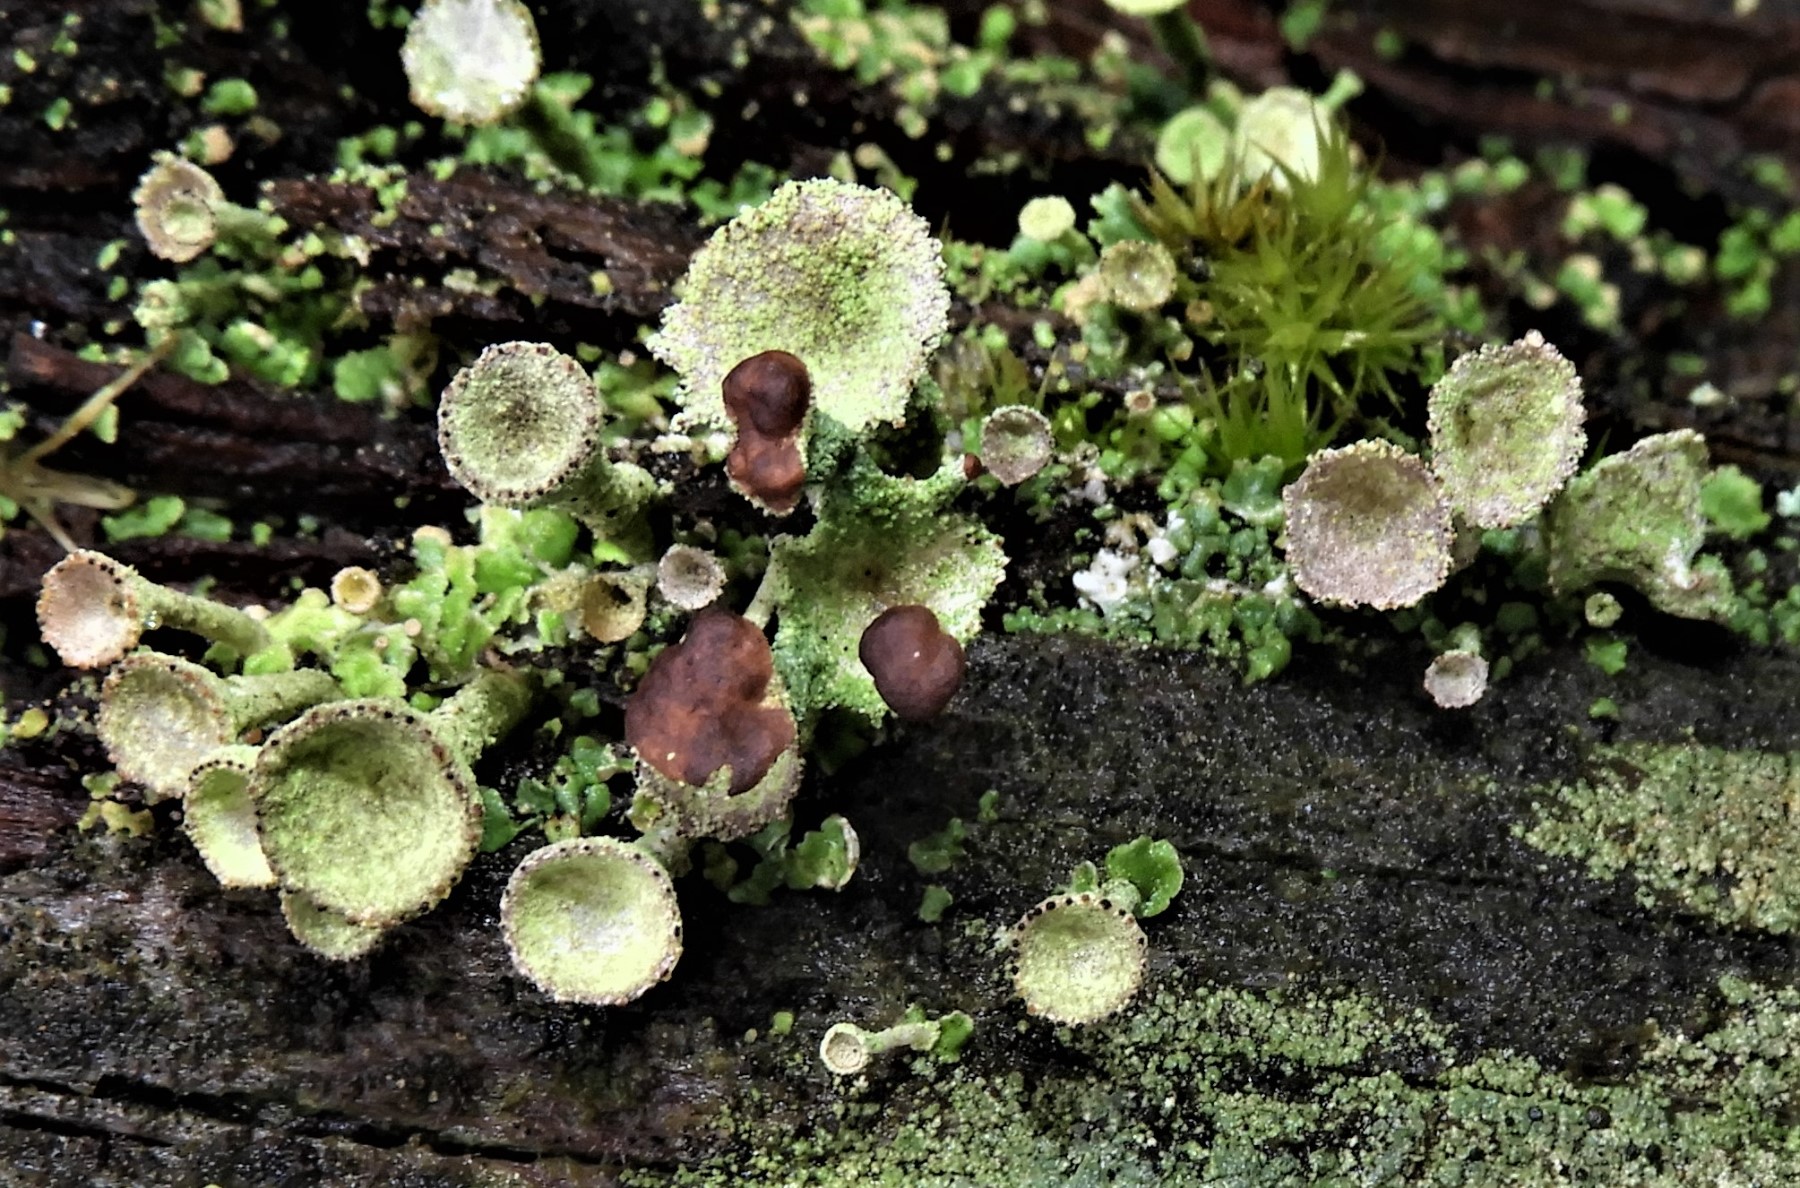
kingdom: Fungi
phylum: Ascomycota
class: Lecanoromycetes
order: Lecanorales
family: Cladoniaceae
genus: Cladonia
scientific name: Cladonia
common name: brungrøn bægerlav
